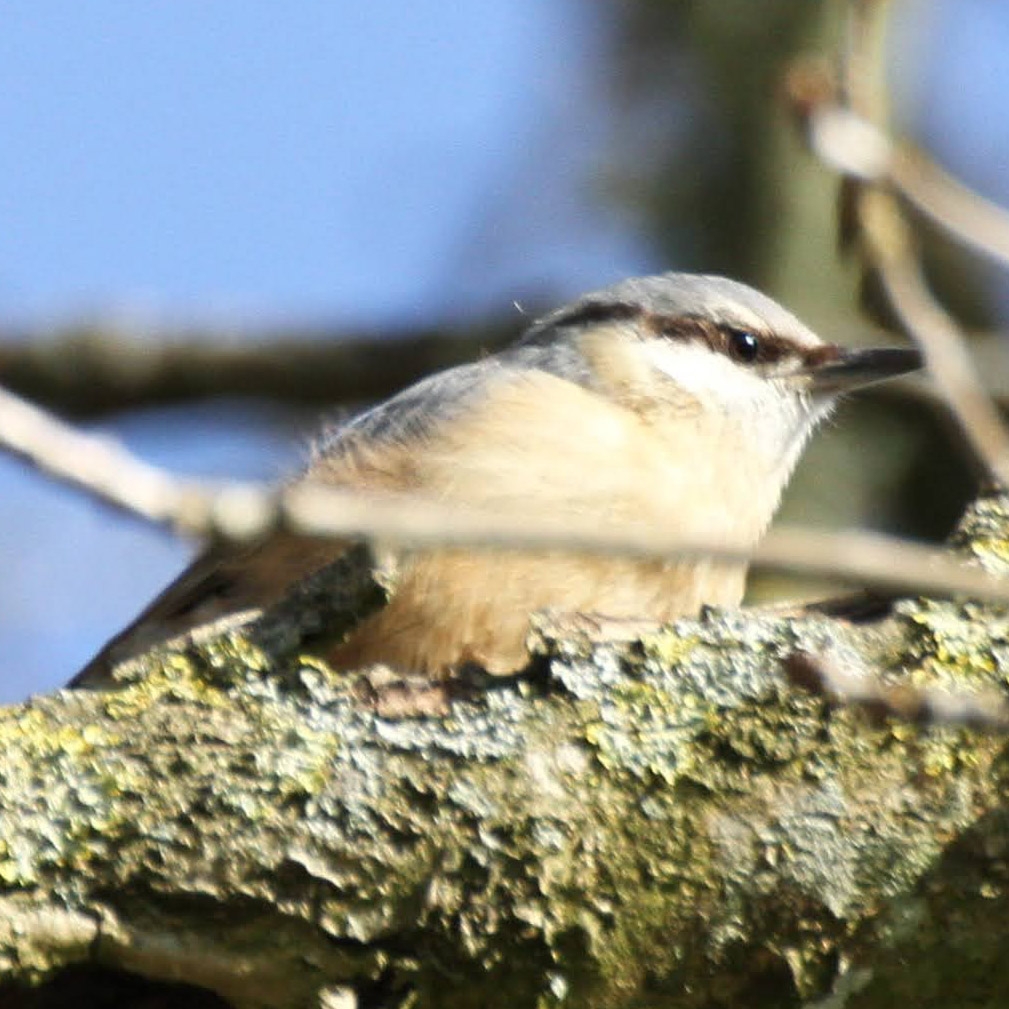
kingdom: Animalia
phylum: Chordata
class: Aves
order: Passeriformes
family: Sittidae
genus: Sitta
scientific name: Sitta europaea
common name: Spætmejse
